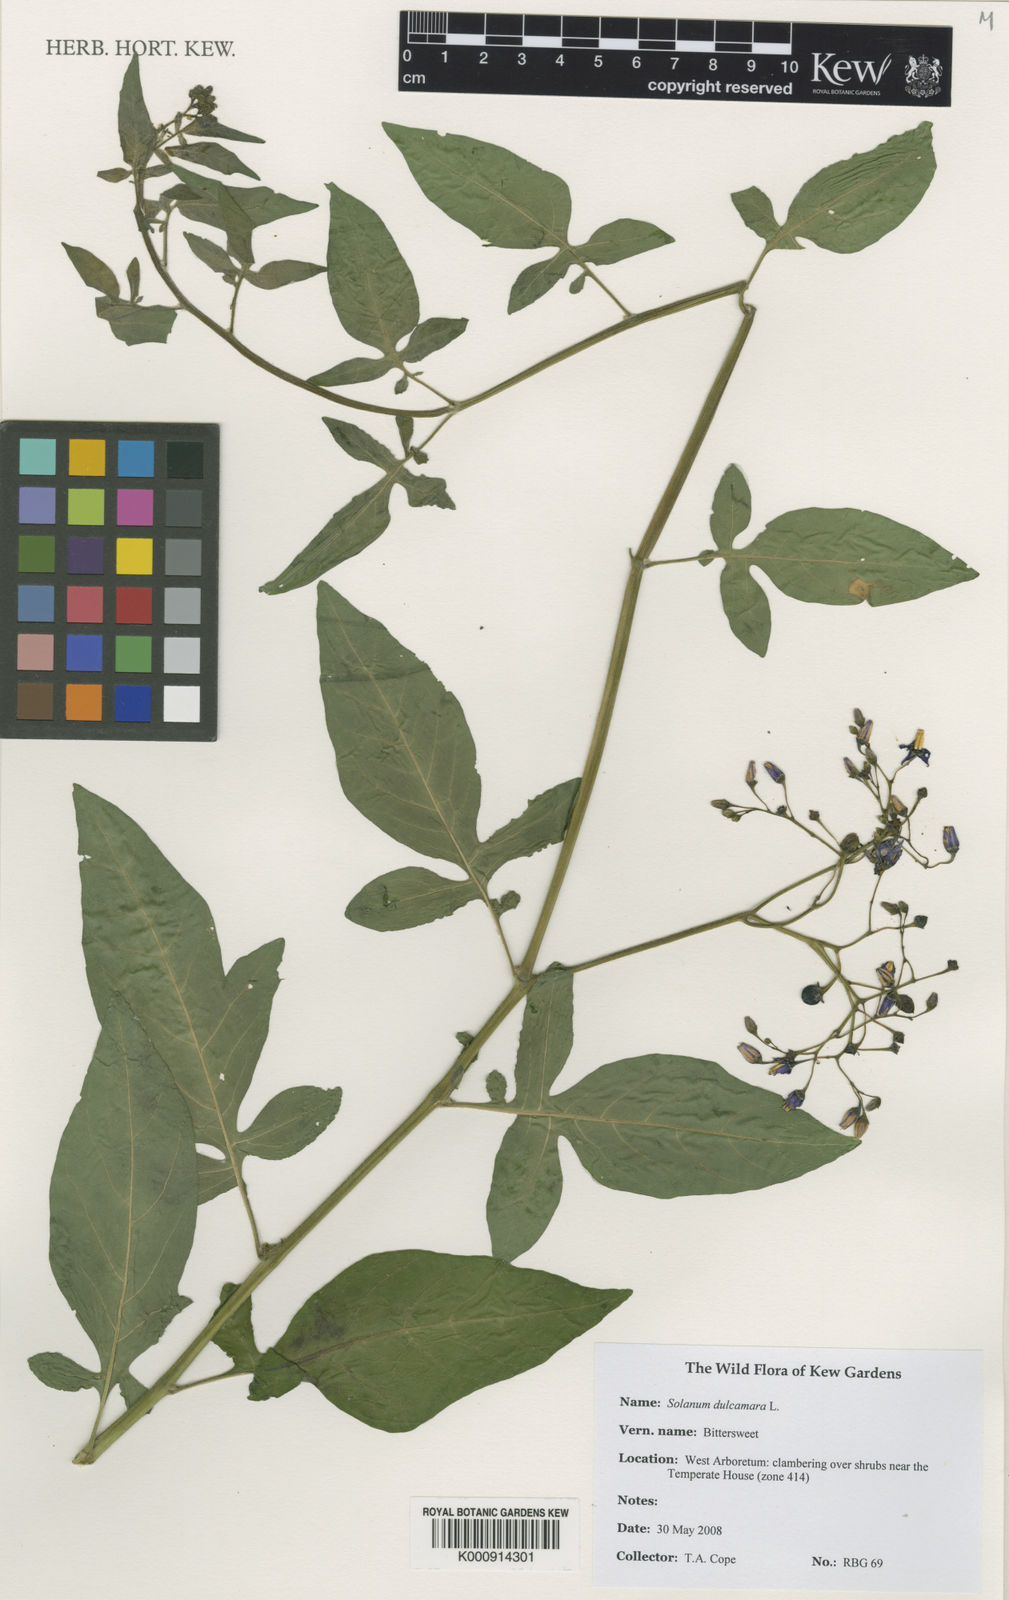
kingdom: Plantae
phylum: Tracheophyta
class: Magnoliopsida
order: Solanales
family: Solanaceae
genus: Solanum
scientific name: Solanum dulcamara
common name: Climbing nightshade
